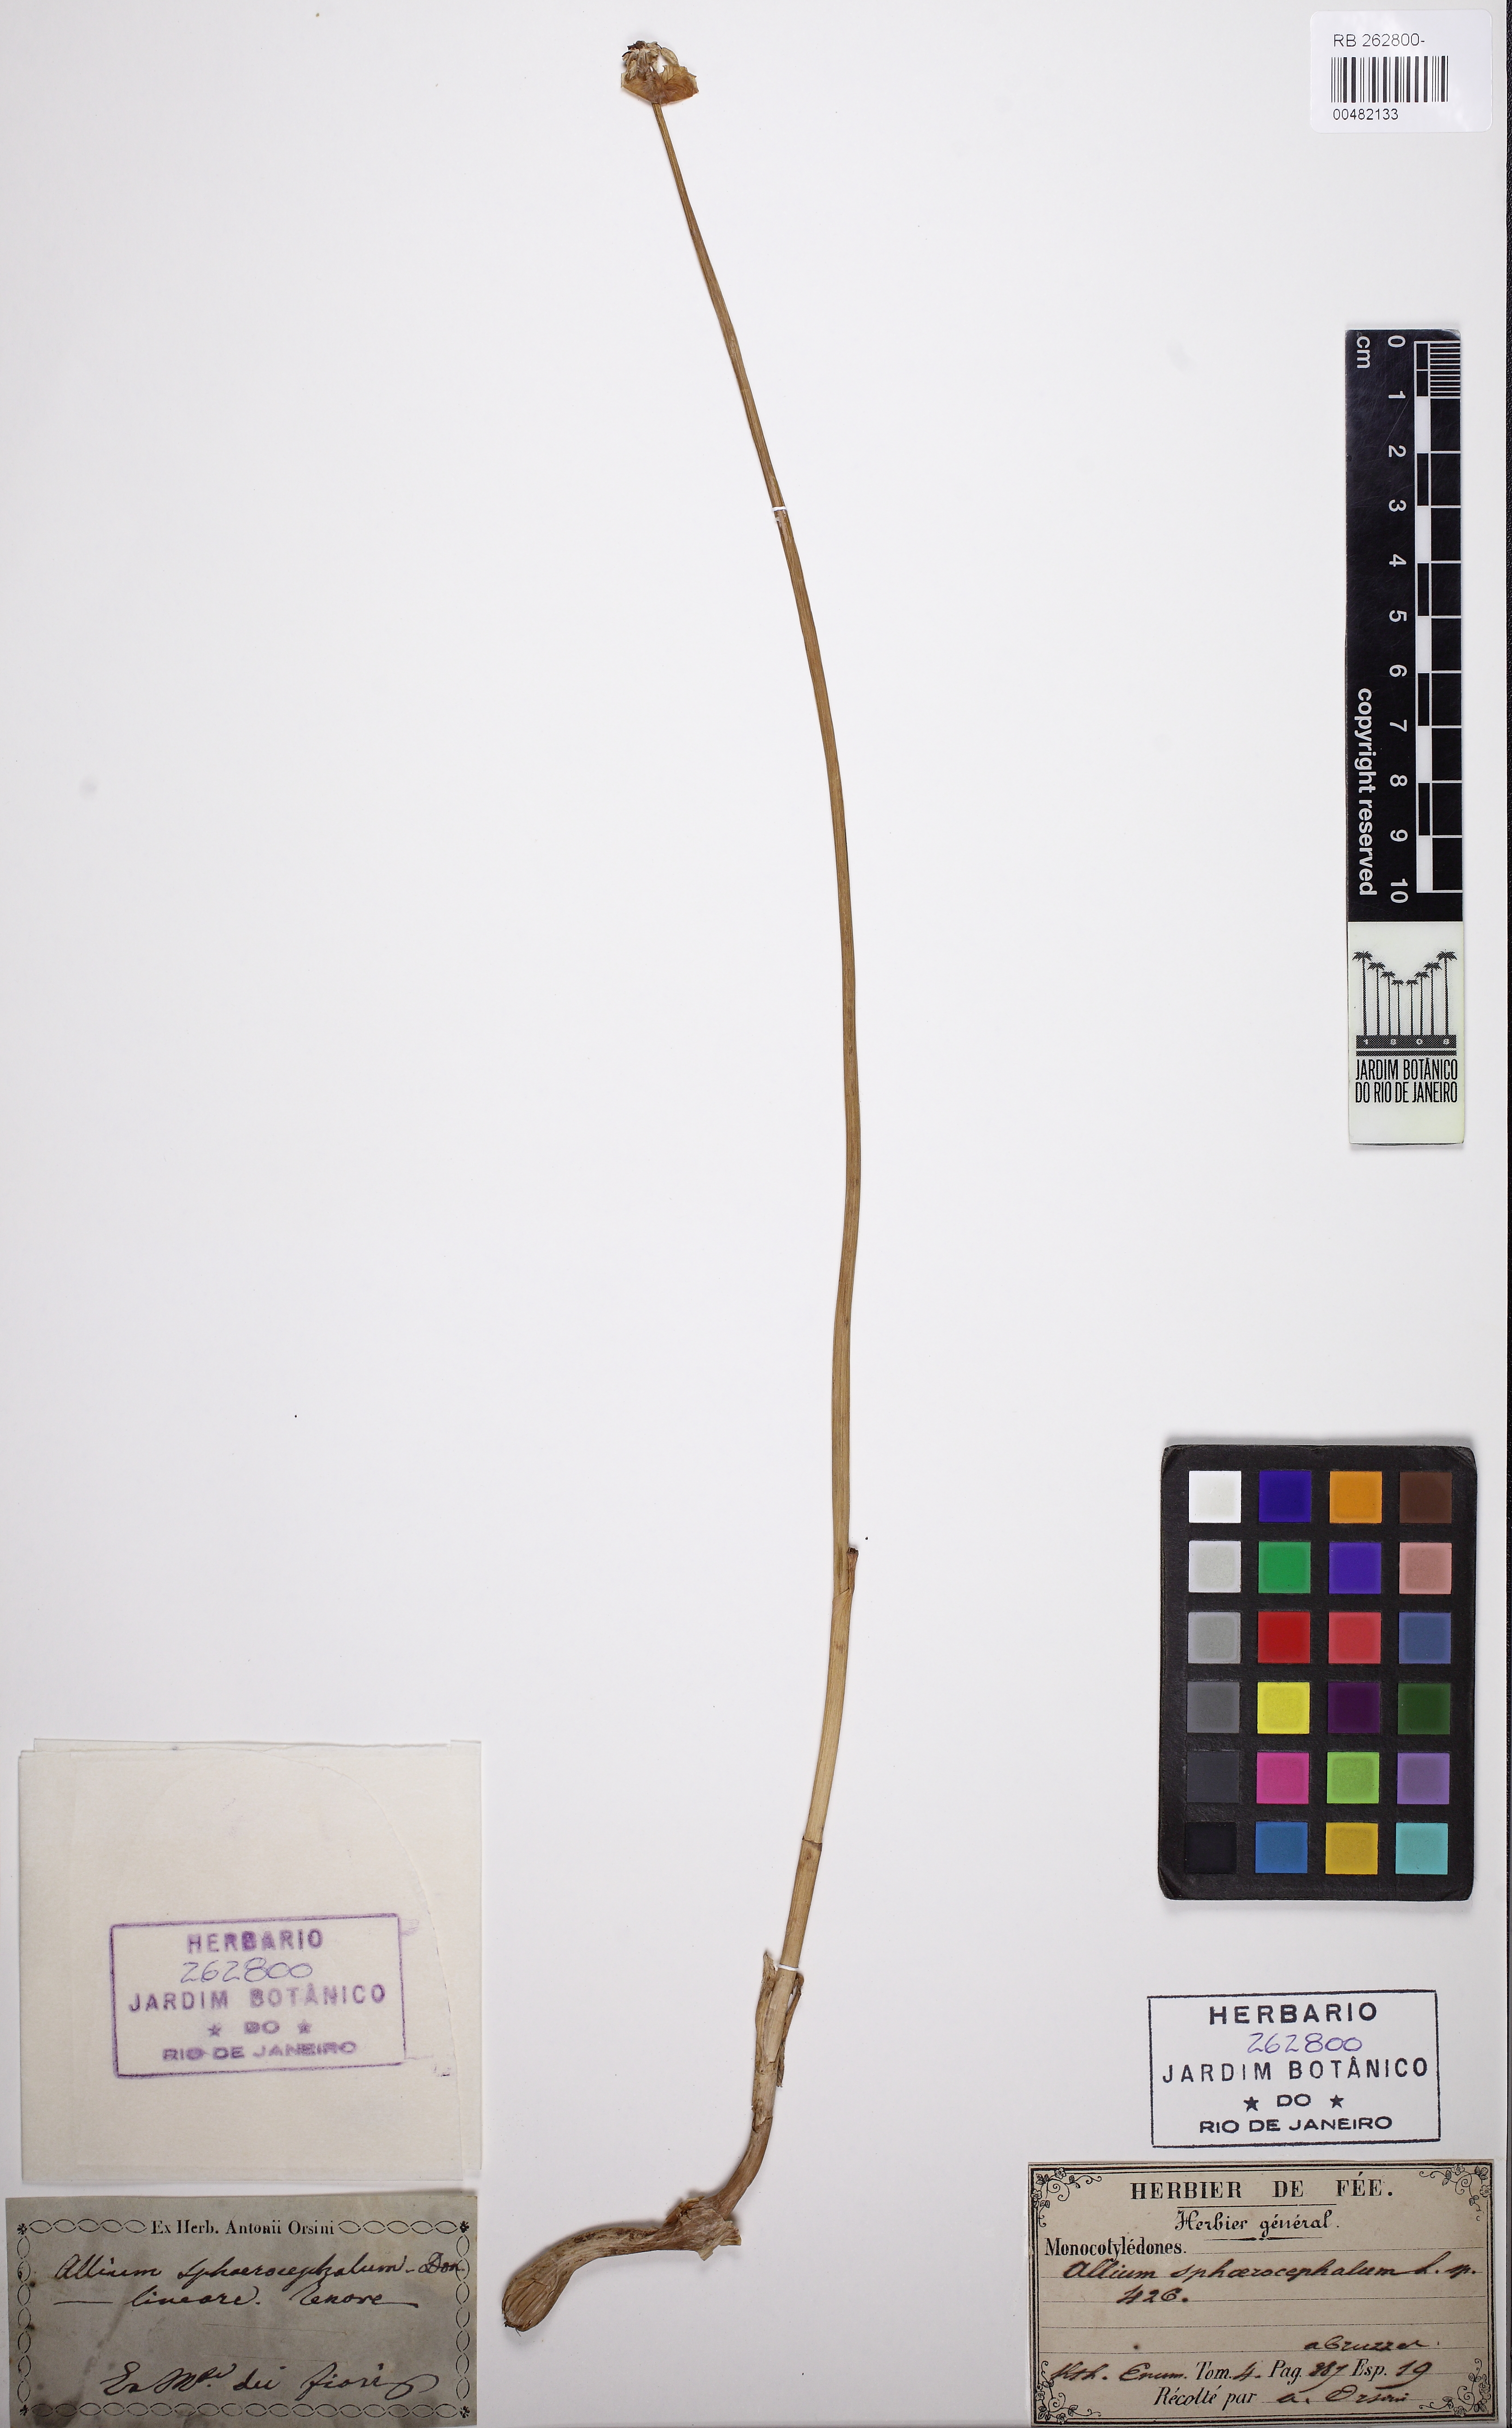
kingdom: Plantae
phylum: Tracheophyta
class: Liliopsida
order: Asparagales
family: Amaryllidaceae
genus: Allium
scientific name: Allium vineale
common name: Crow garlic
